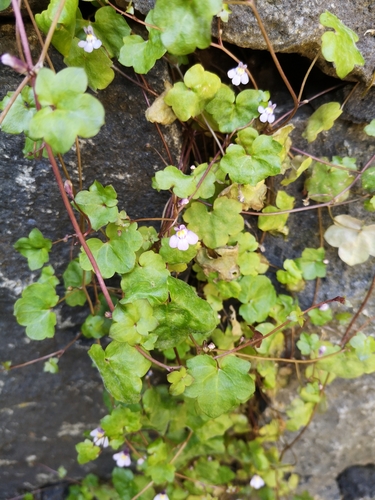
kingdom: Plantae
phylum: Tracheophyta
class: Magnoliopsida
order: Lamiales
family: Plantaginaceae
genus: Cymbalaria
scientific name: Cymbalaria muralis
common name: Ivy-leaved toadflax
